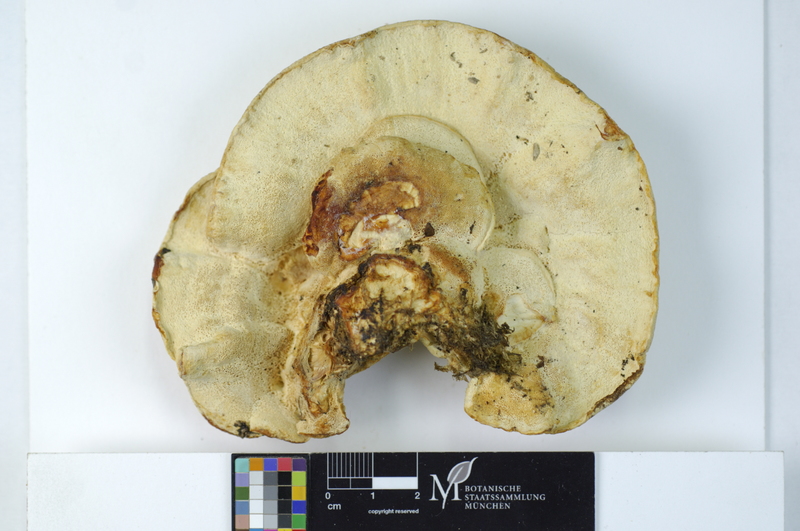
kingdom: Plantae
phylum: Tracheophyta
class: Magnoliopsida
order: Fagales
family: Fagaceae
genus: Fagus
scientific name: Fagus sylvatica
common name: Beech
